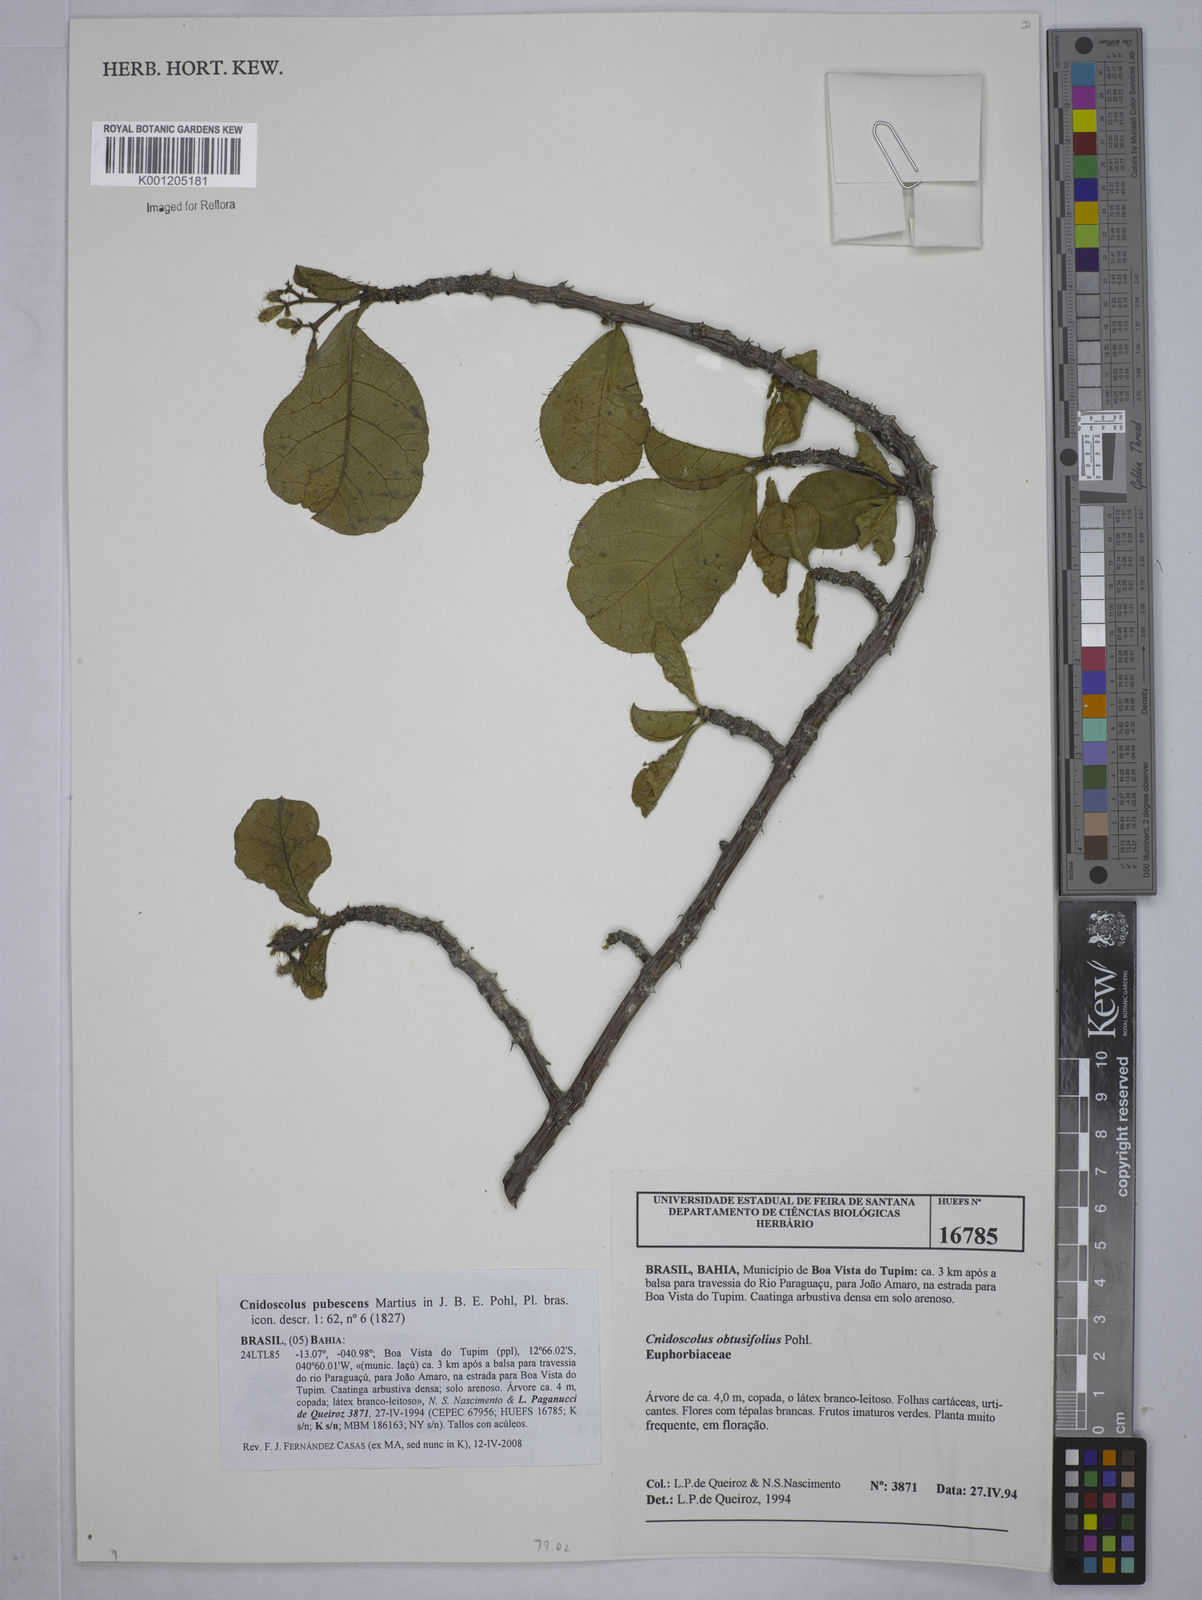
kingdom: Plantae
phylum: Tracheophyta
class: Magnoliopsida
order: Malpighiales
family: Euphorbiaceae
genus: Cnidoscolus
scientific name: Cnidoscolus pubescens
